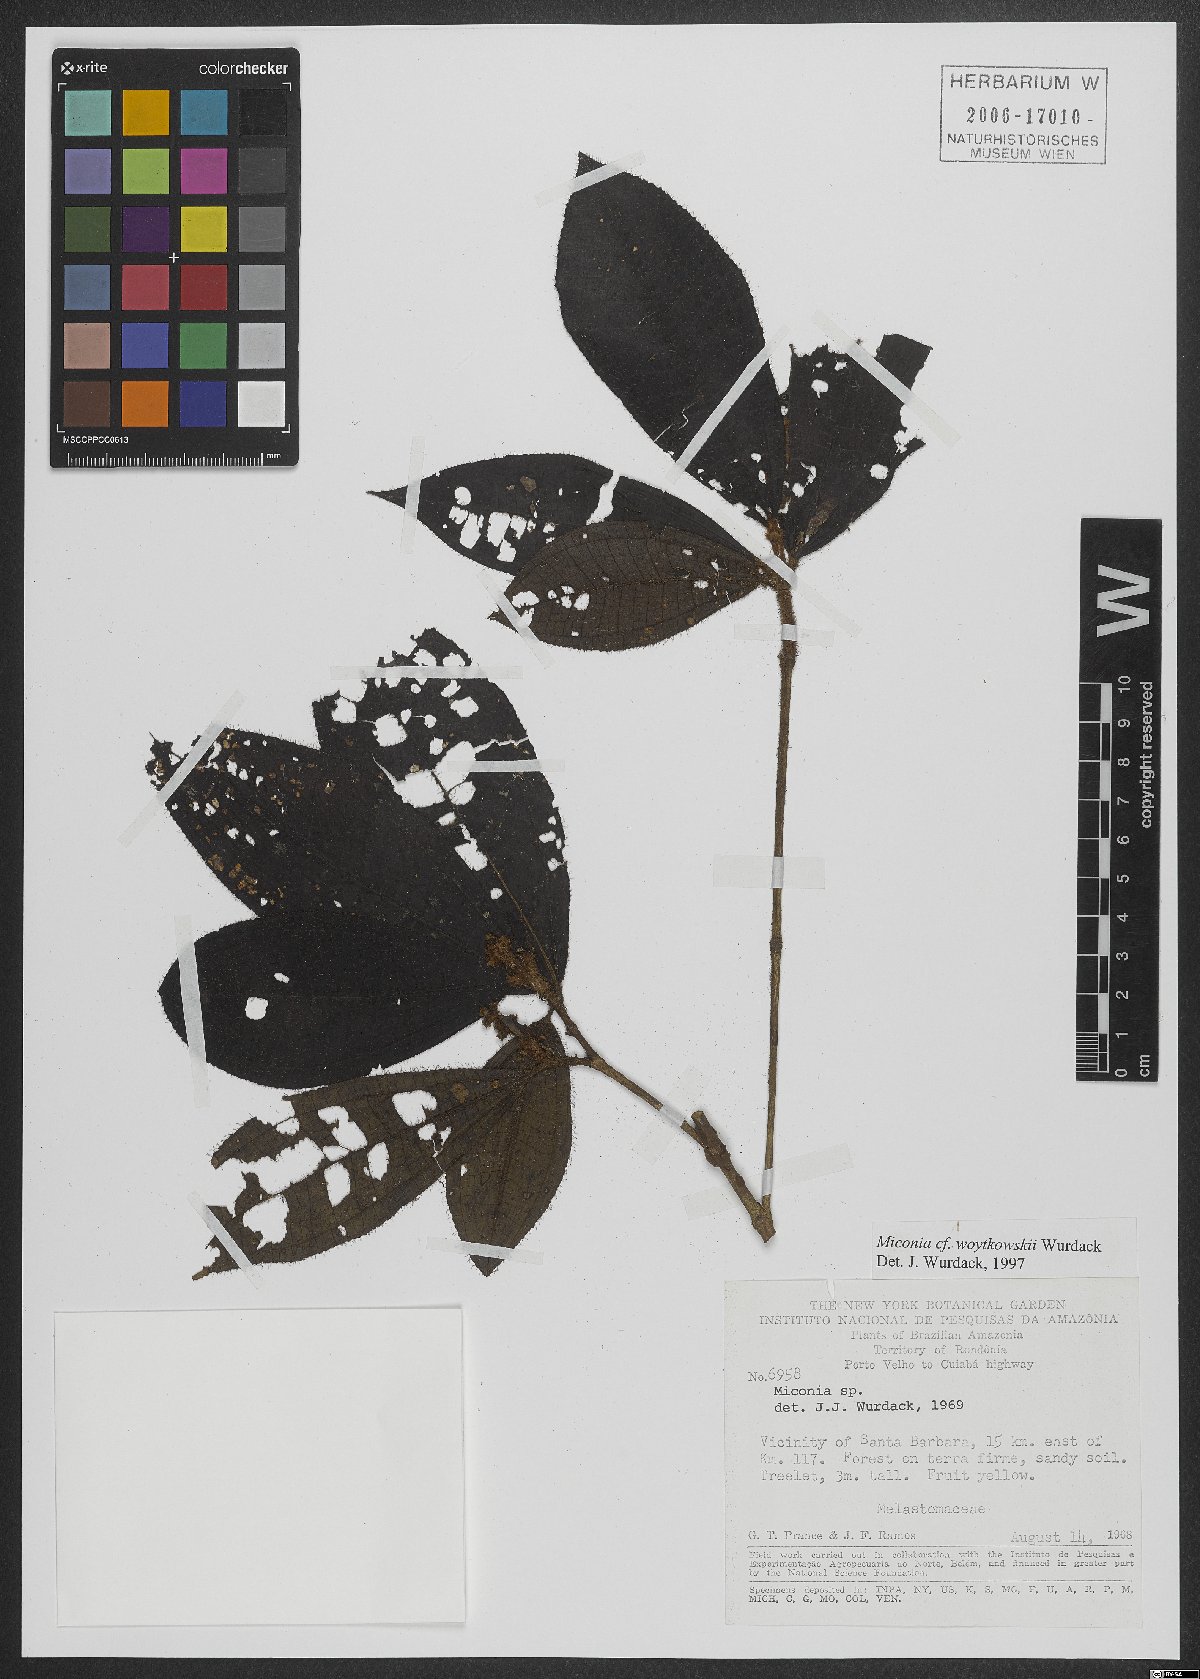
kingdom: Plantae
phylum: Tracheophyta
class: Magnoliopsida
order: Myrtales
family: Melastomataceae
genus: Miconia
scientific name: Miconia woytkowskii
